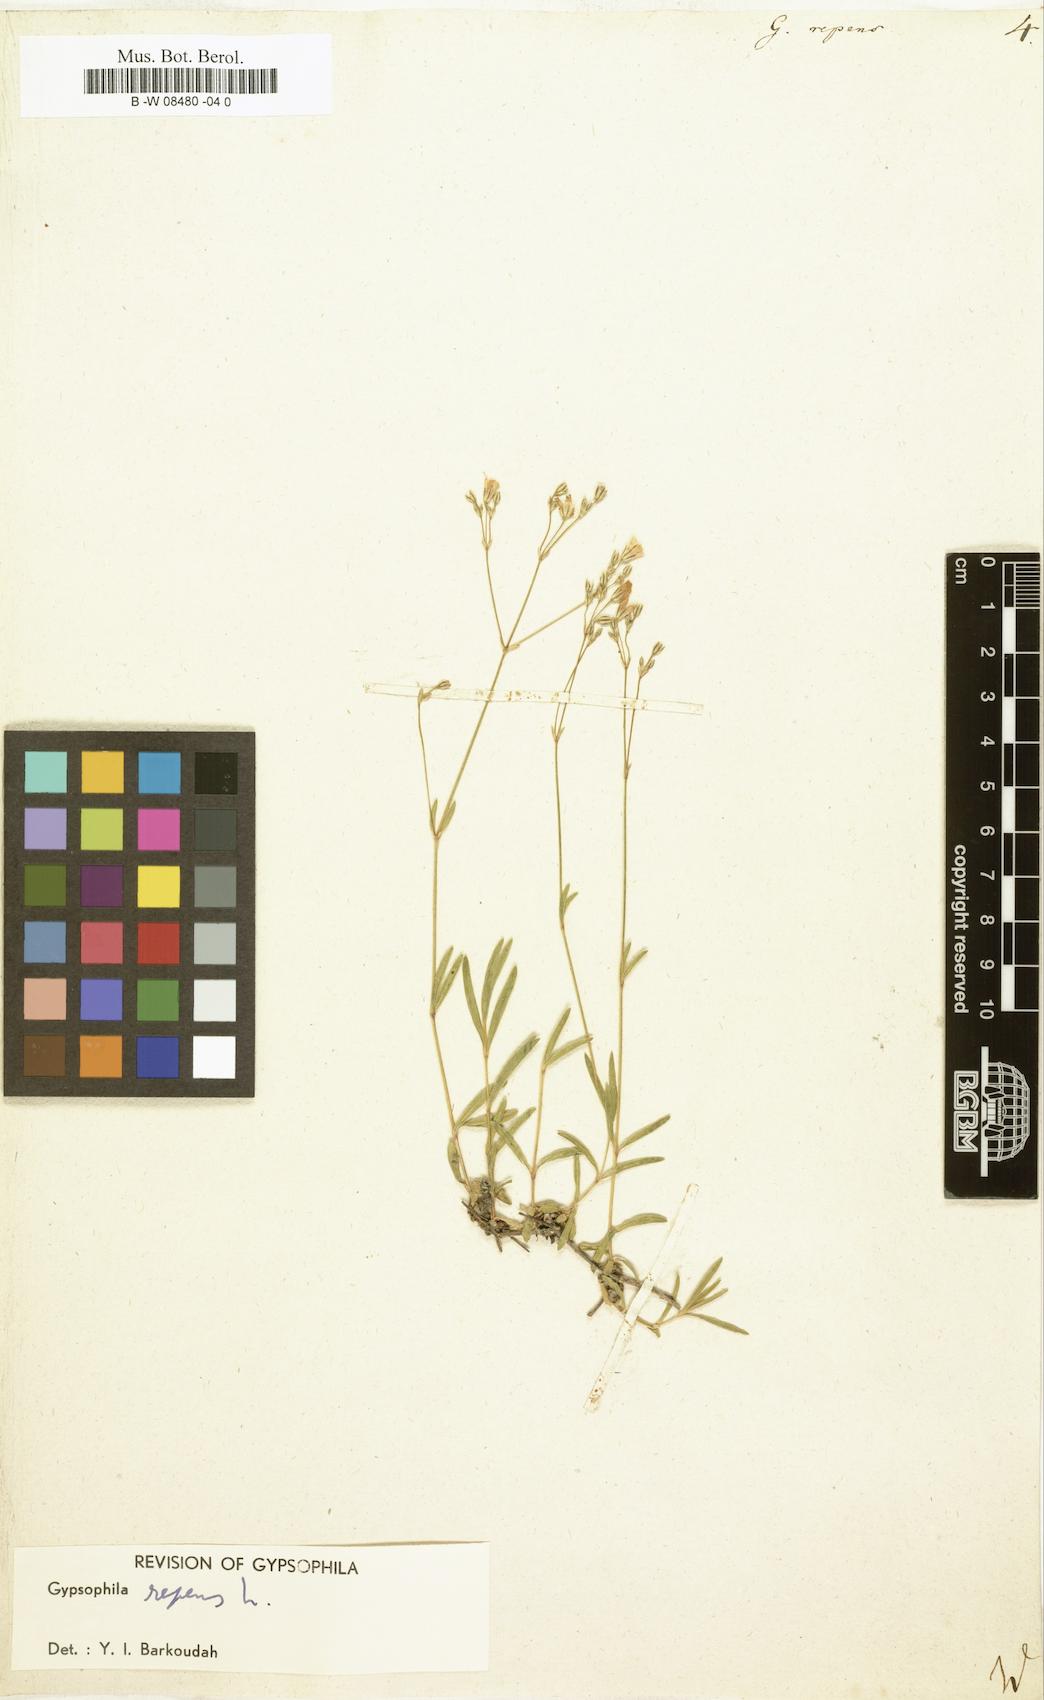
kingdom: Plantae
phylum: Tracheophyta
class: Magnoliopsida
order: Caryophyllales
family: Caryophyllaceae
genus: Gypsophila
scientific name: Gypsophila repens
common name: Creeping baby's-breath
